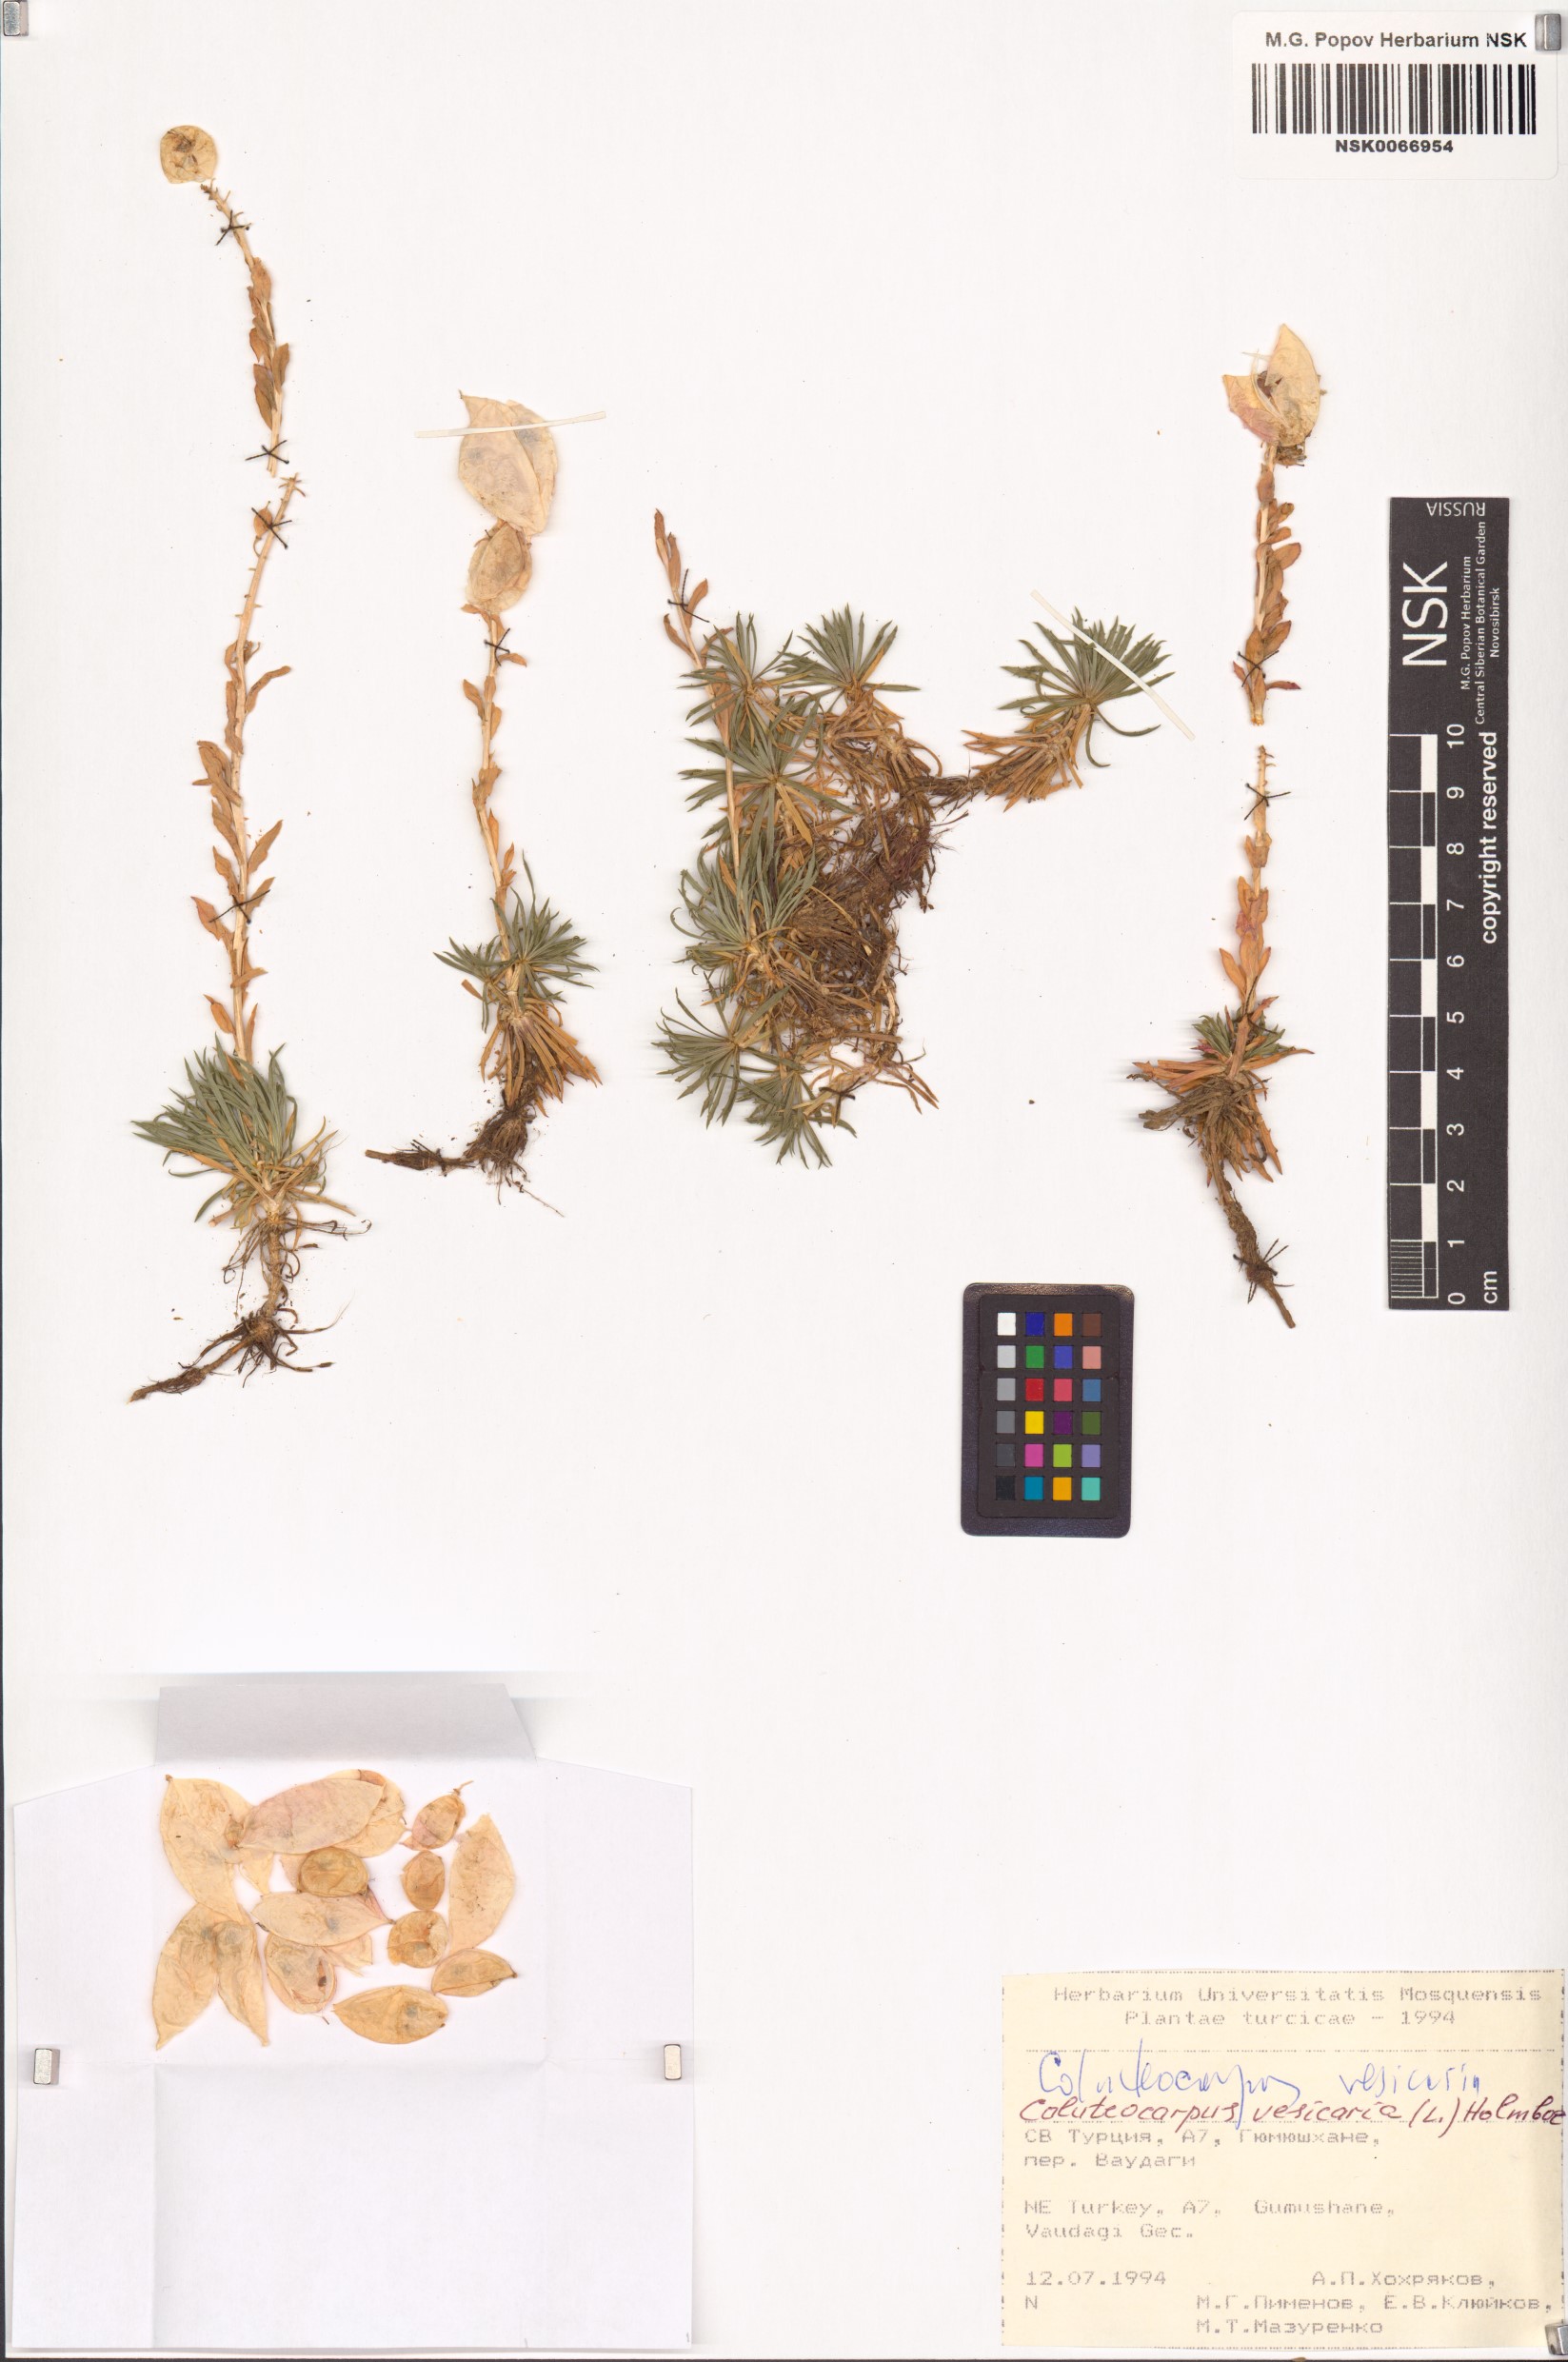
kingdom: Plantae
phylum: Tracheophyta
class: Magnoliopsida
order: Brassicales
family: Brassicaceae
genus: Noccaea
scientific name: Noccaea vesicaria
